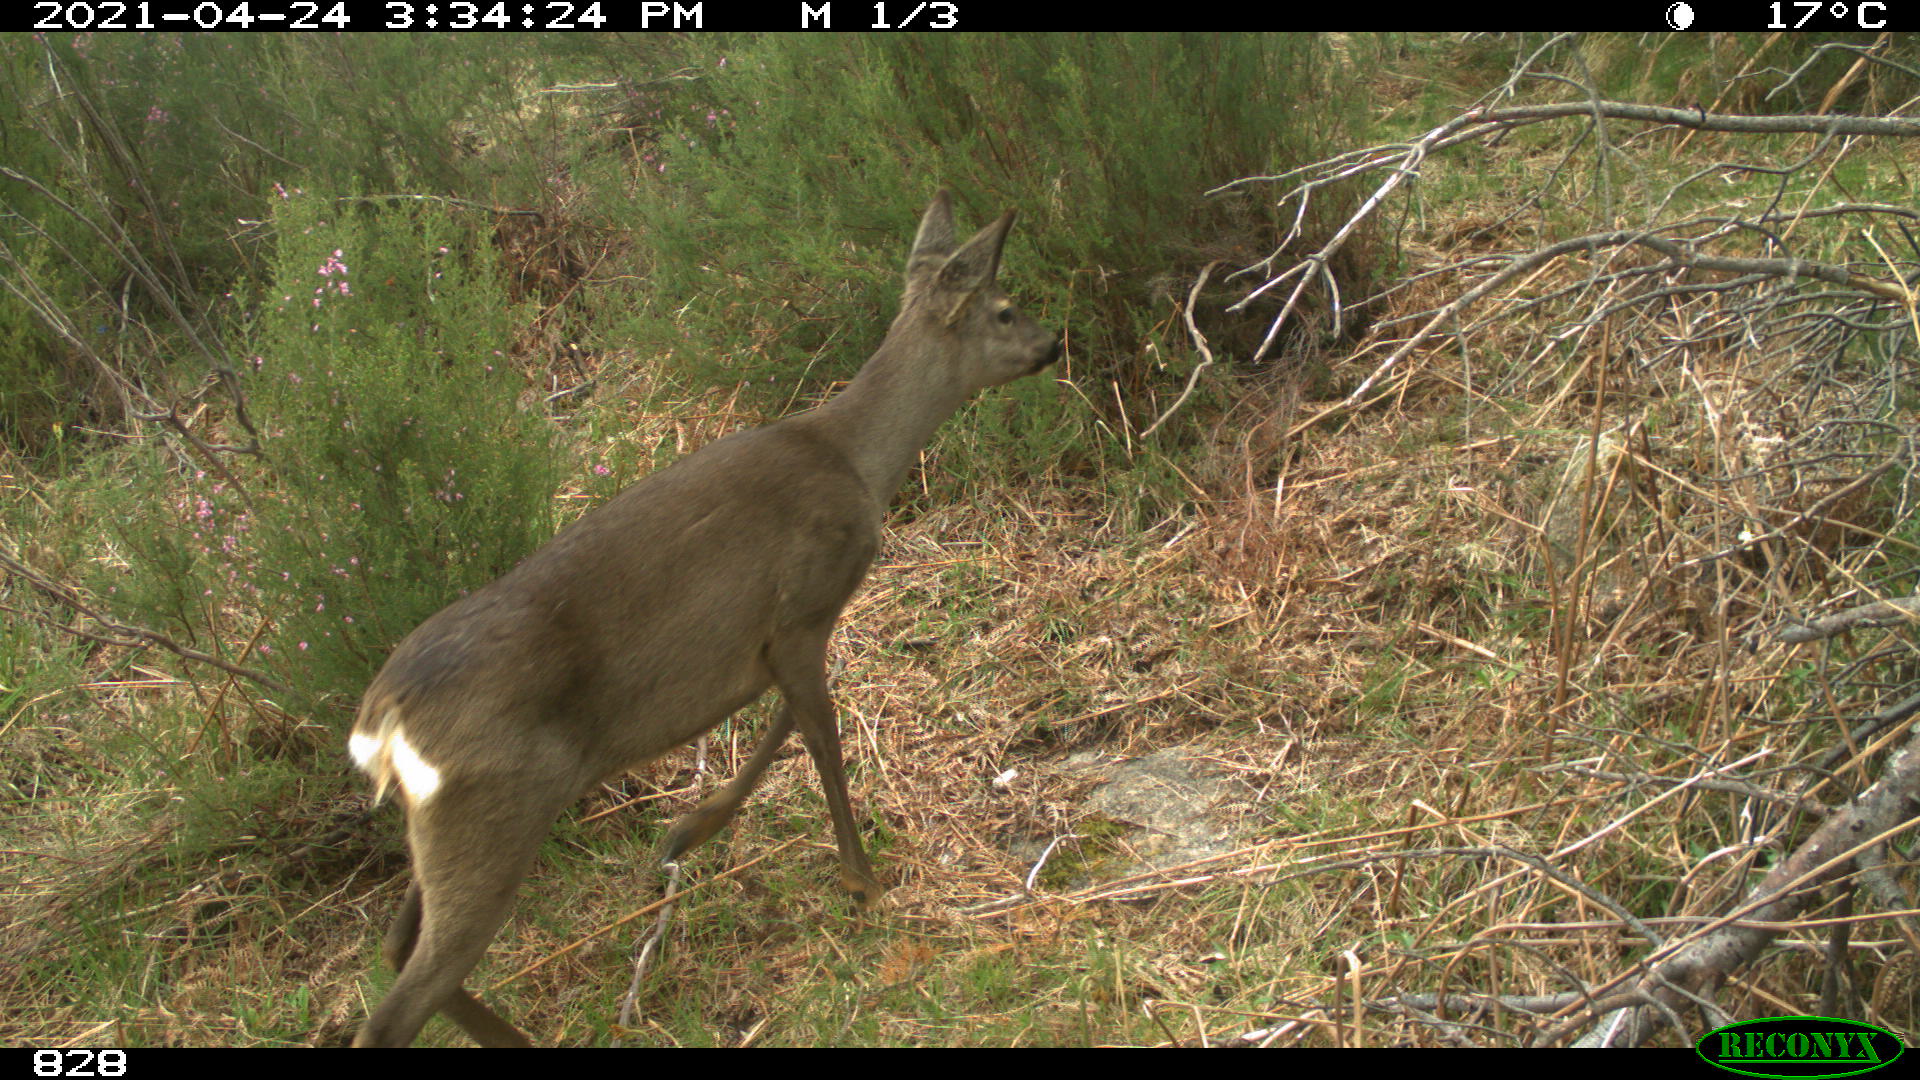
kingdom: Animalia
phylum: Chordata
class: Mammalia
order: Artiodactyla
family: Cervidae
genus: Capreolus
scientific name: Capreolus capreolus
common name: Western roe deer
